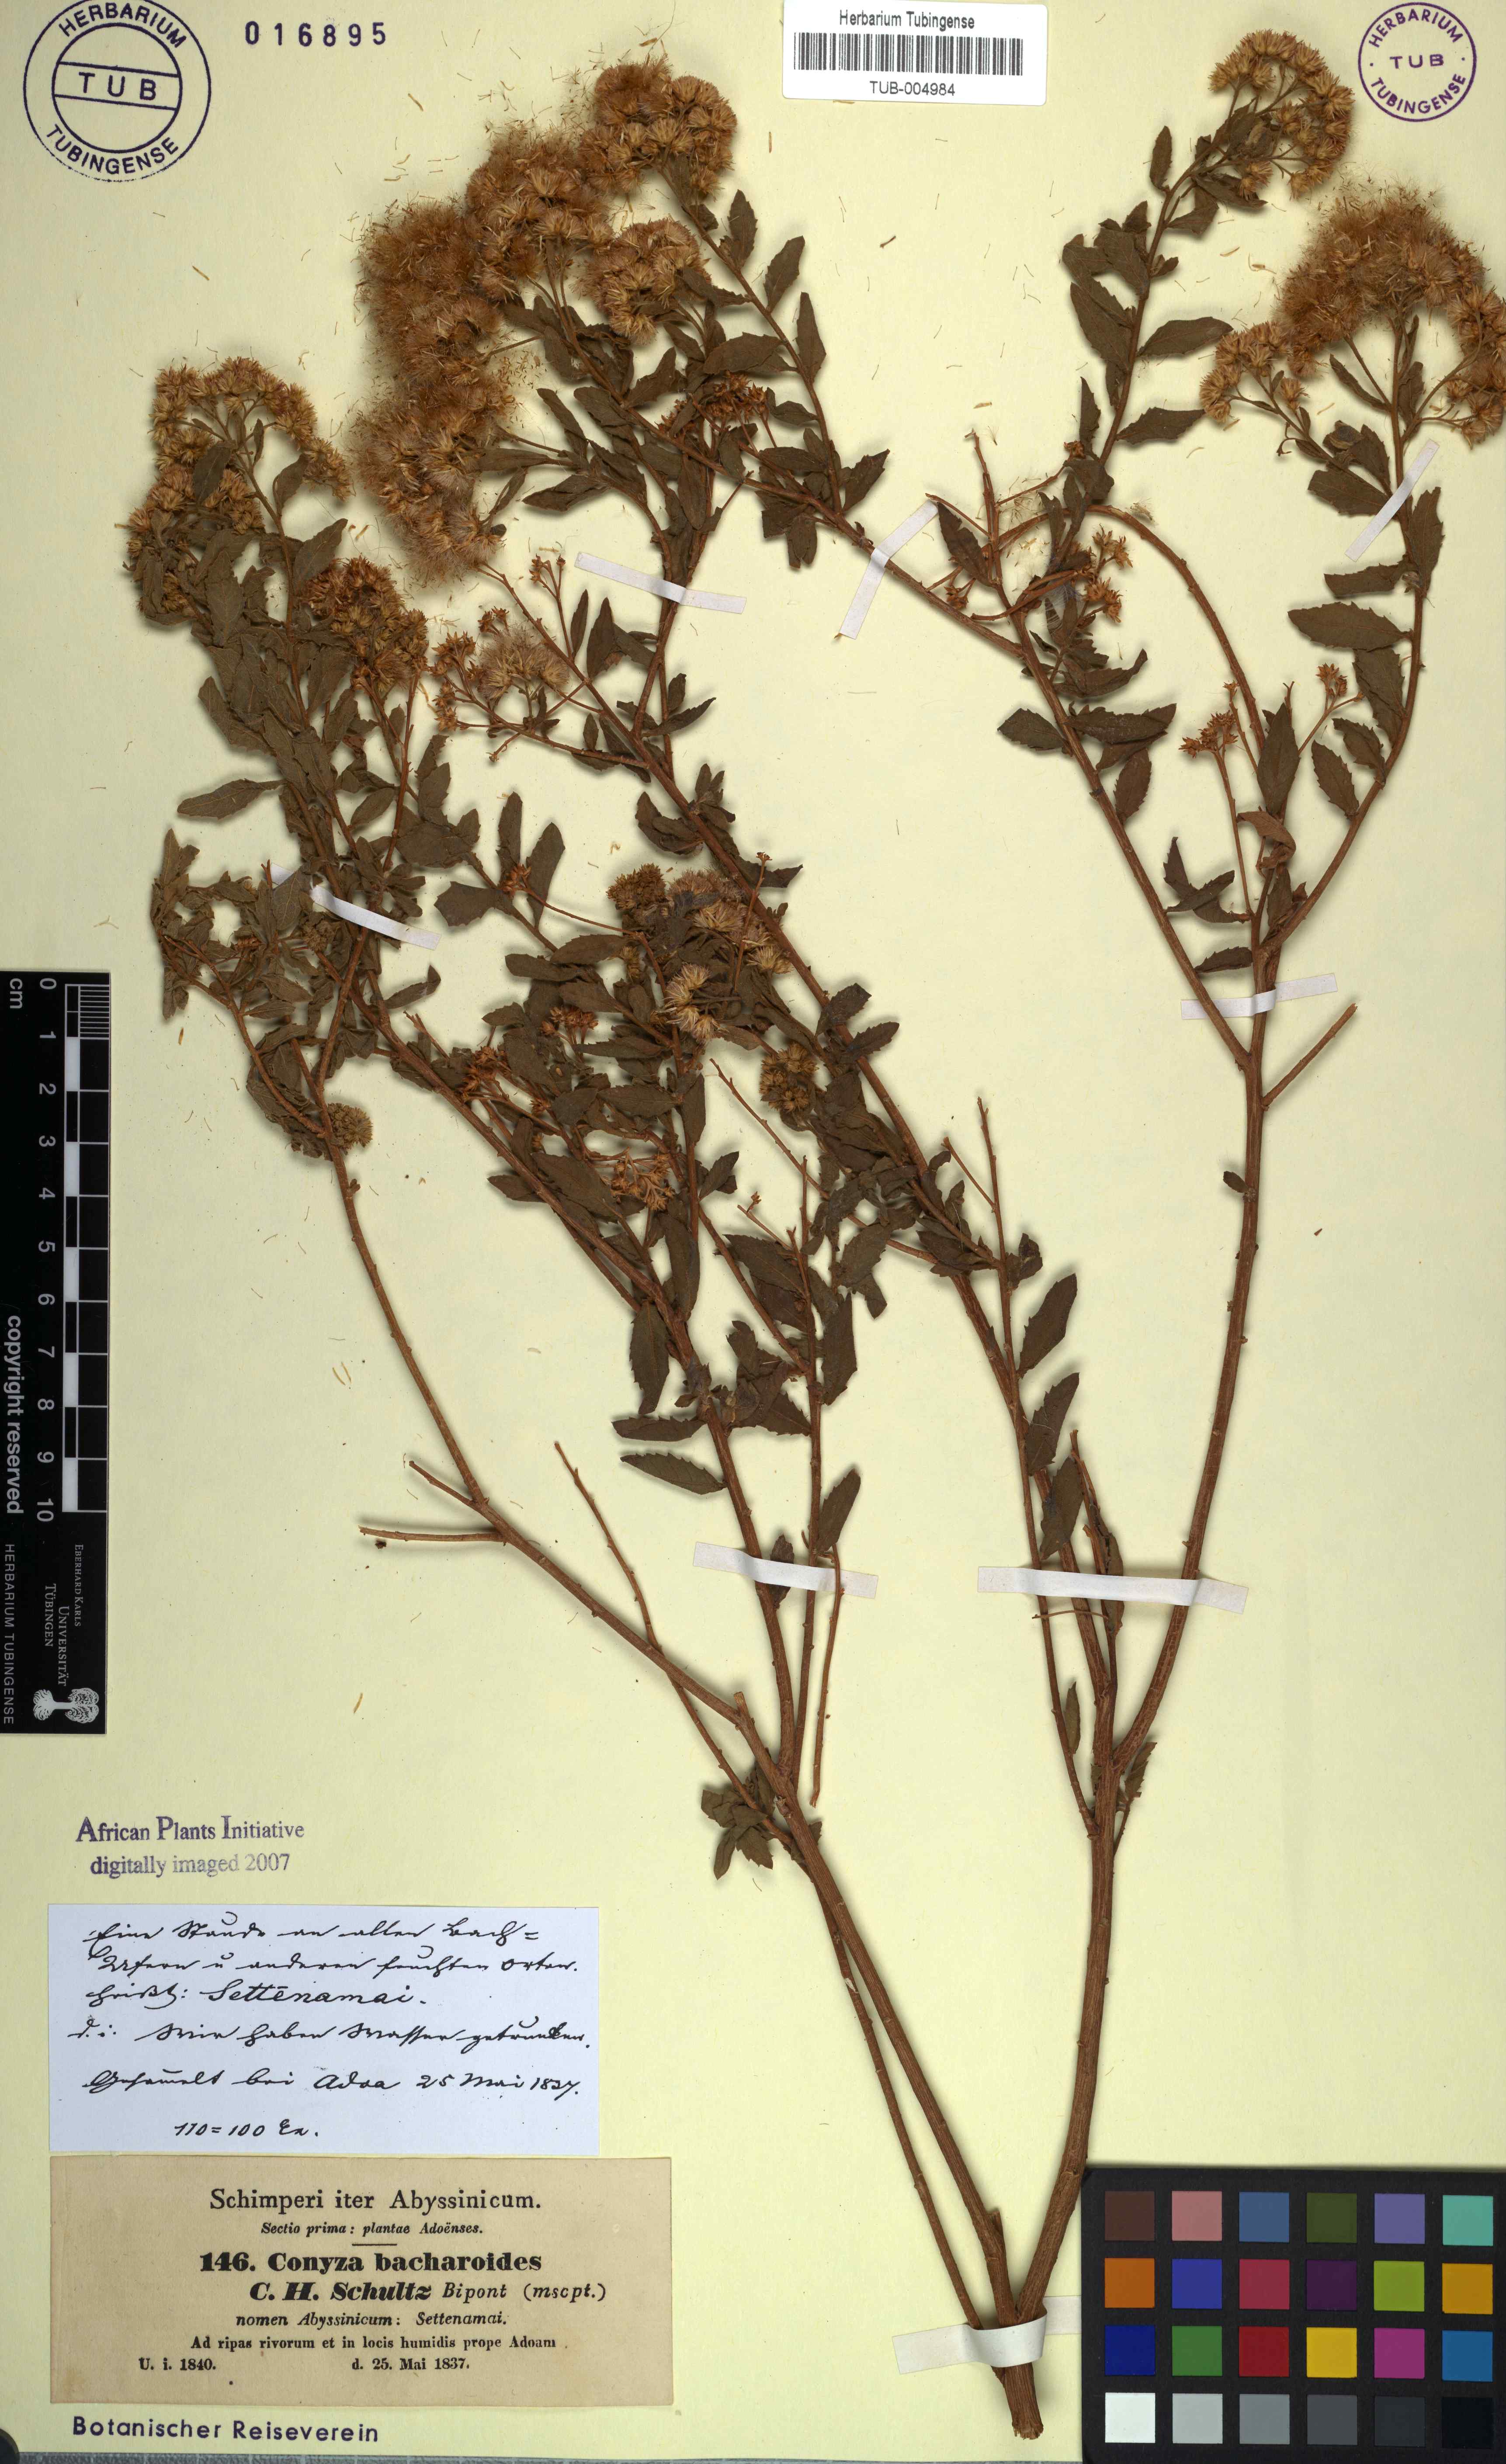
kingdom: Plantae
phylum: Tracheophyta
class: Magnoliopsida
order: Asterales
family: Asteraceae
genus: Pluchea
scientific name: Pluchea dioscoridis
